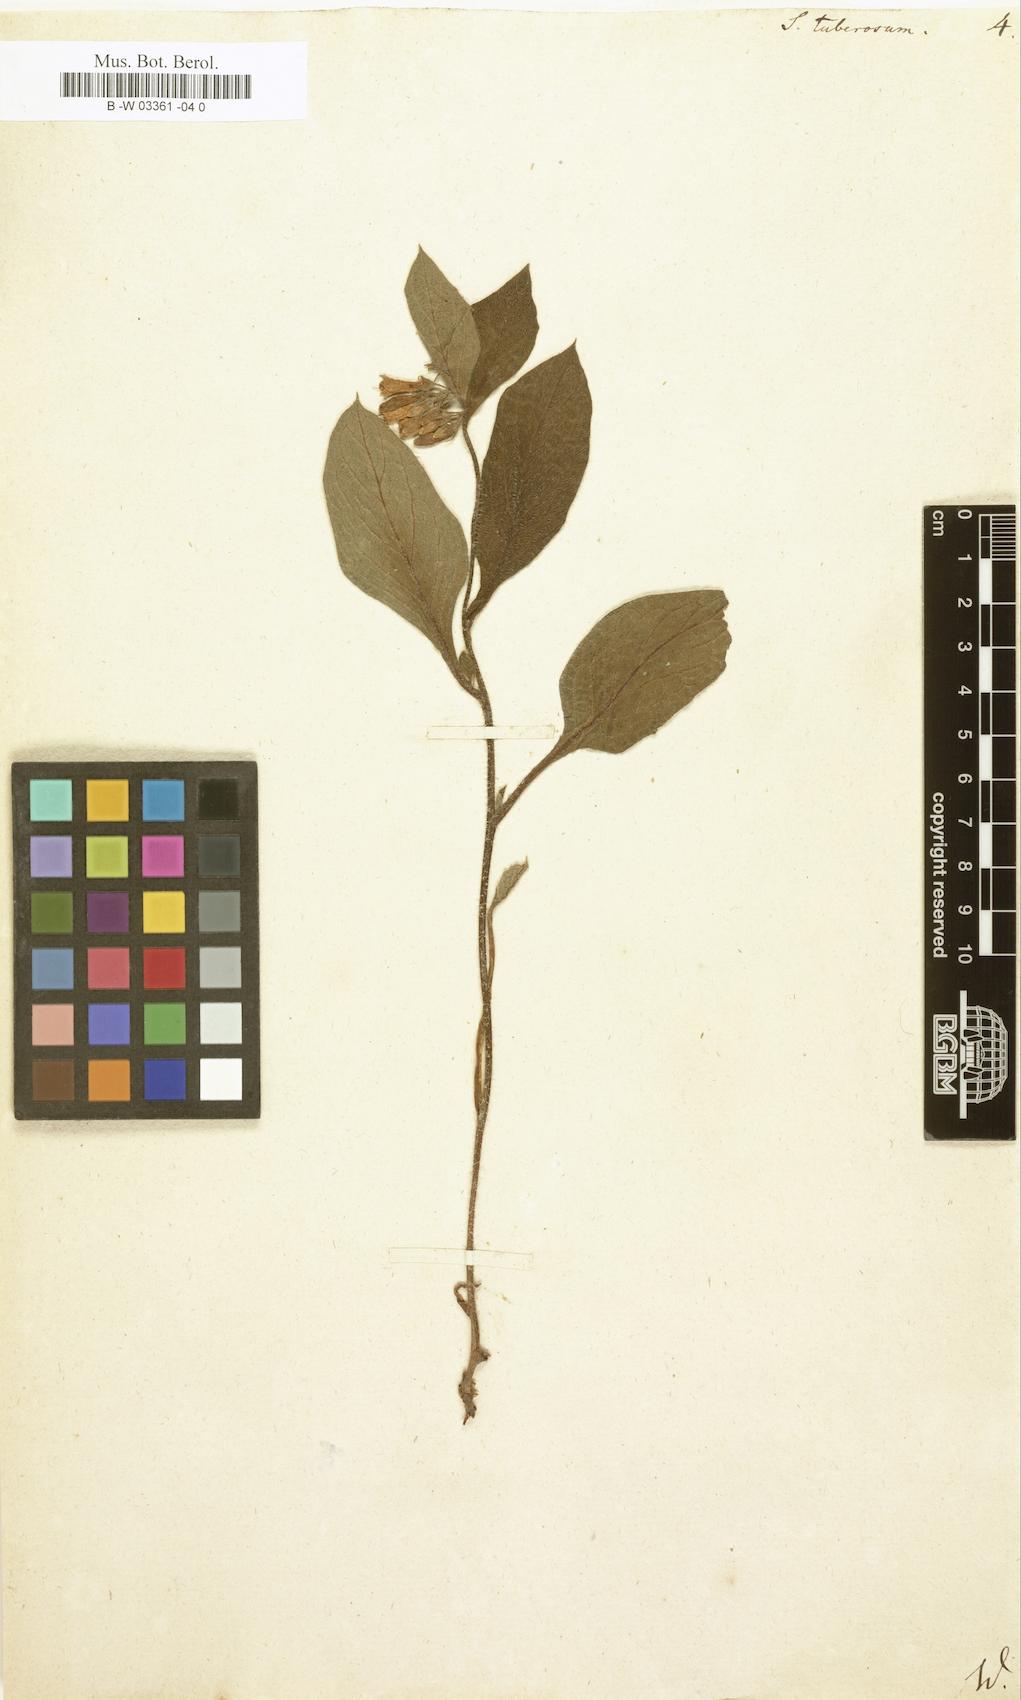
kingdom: Plantae
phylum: Tracheophyta
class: Magnoliopsida
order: Boraginales
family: Boraginaceae
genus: Symphytum
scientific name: Symphytum tuberosum
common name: Tuberous comfrey
